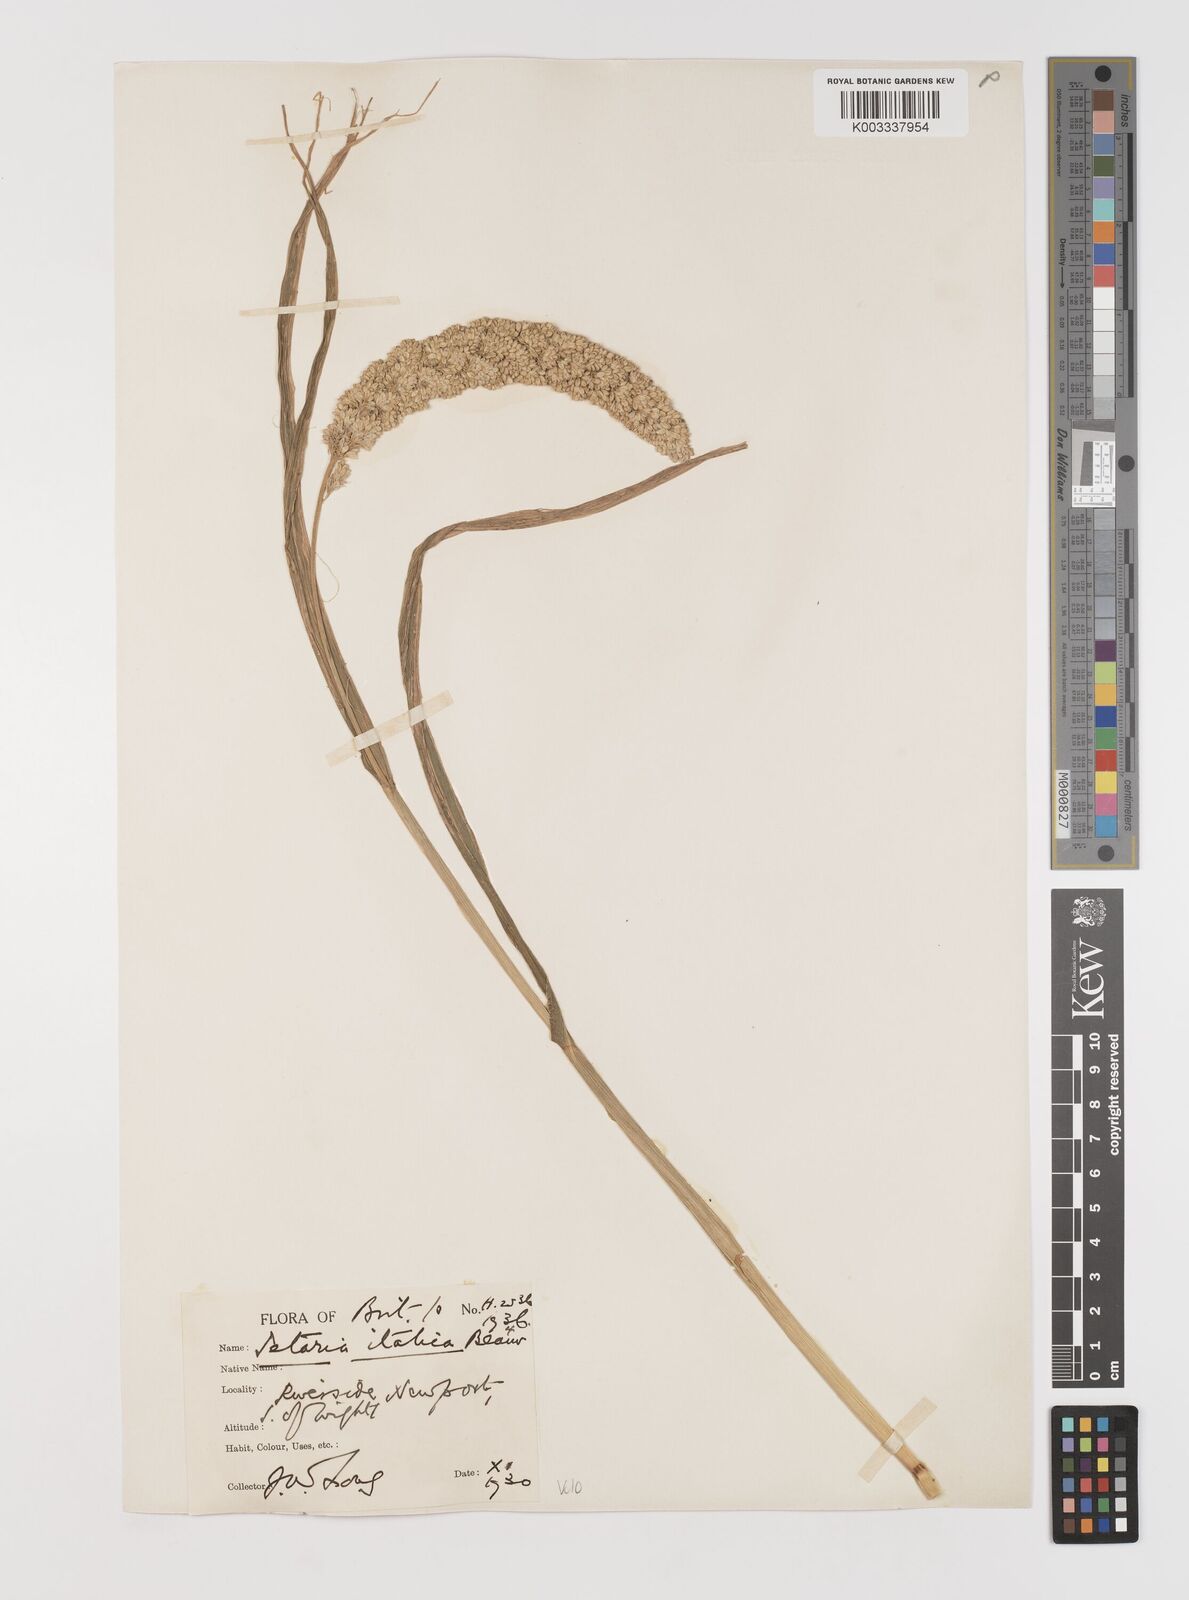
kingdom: Plantae
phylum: Tracheophyta
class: Liliopsida
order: Poales
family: Poaceae
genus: Setaria
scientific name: Setaria italica
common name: Foxtail bristle-grass
